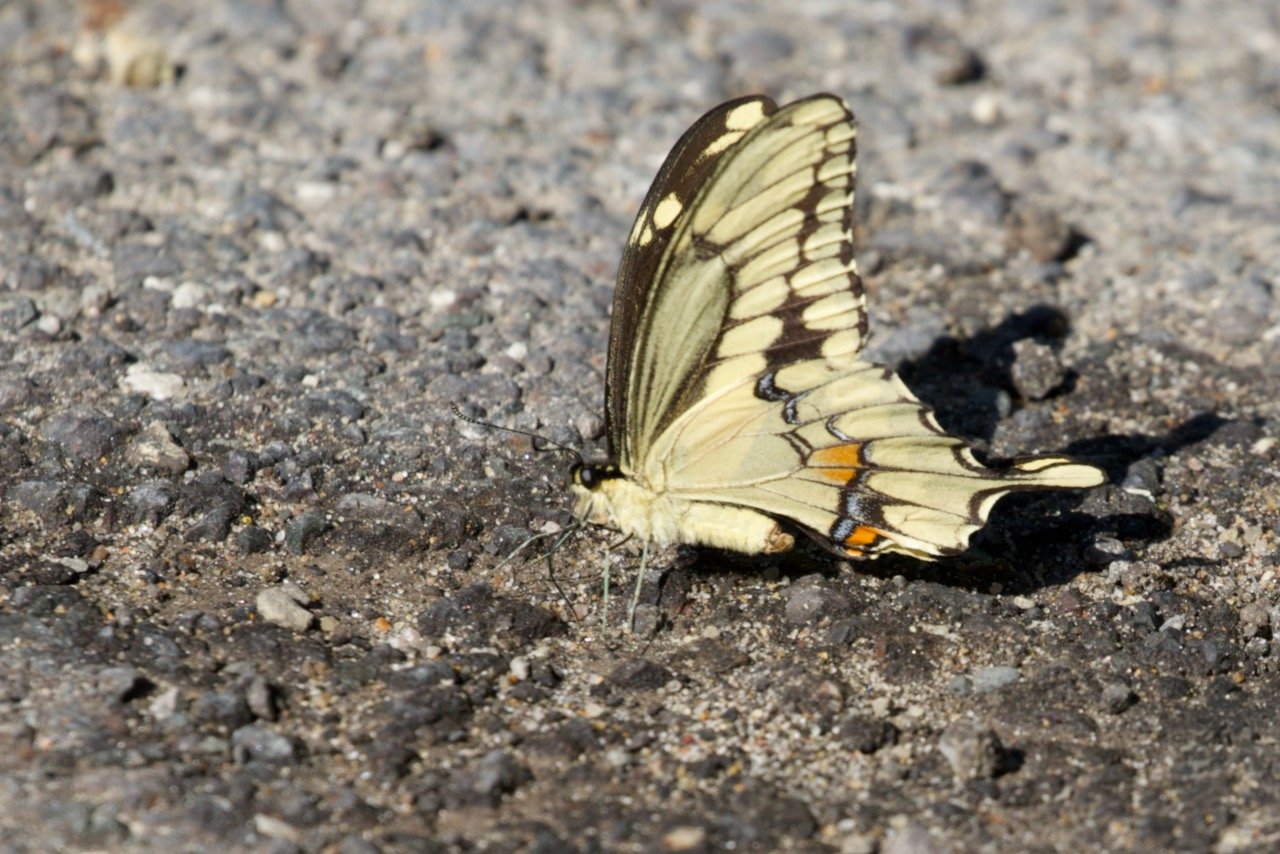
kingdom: Animalia
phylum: Arthropoda
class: Insecta
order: Lepidoptera
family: Papilionidae
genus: Papilio
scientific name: Papilio cresphontes
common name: Eastern Giant Swallowtail
